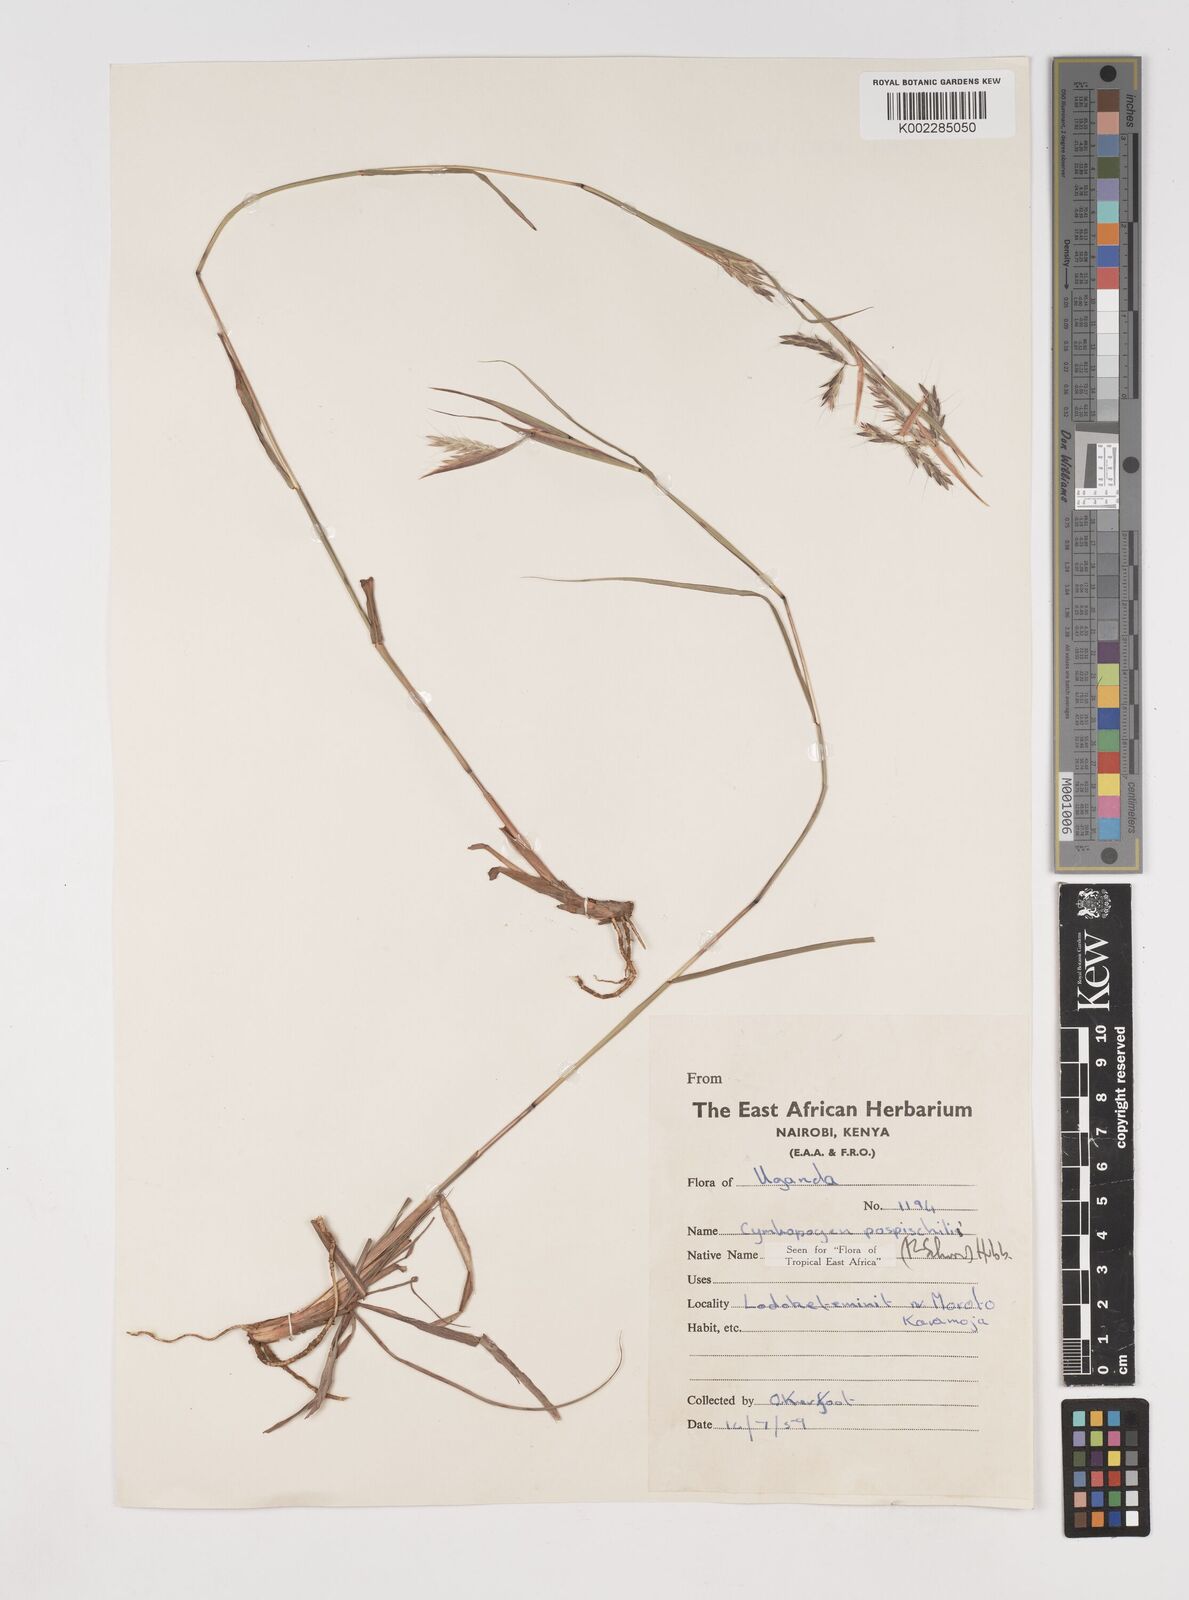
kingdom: Plantae
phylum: Tracheophyta
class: Liliopsida
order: Poales
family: Poaceae
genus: Cymbopogon
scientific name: Cymbopogon pospischilii
